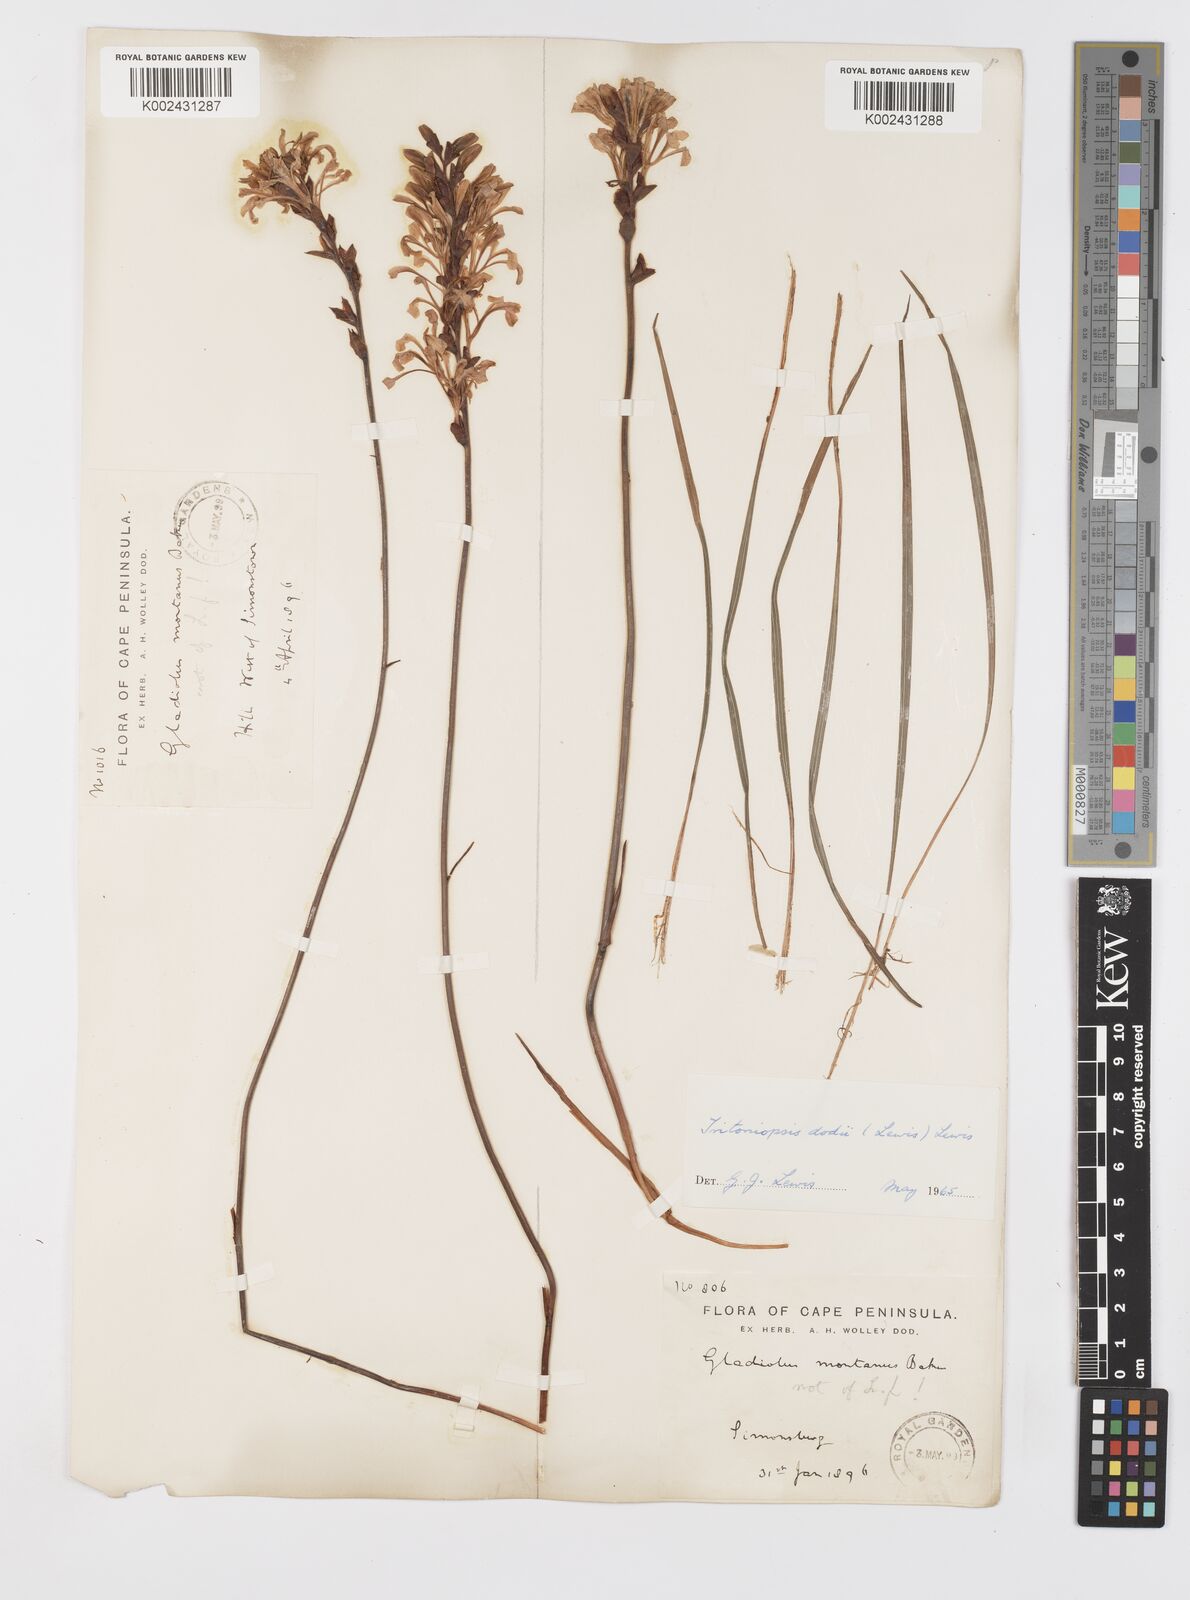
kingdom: Plantae
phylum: Tracheophyta
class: Liliopsida
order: Asparagales
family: Iridaceae
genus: Tritoniopsis
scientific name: Tritoniopsis dodii
